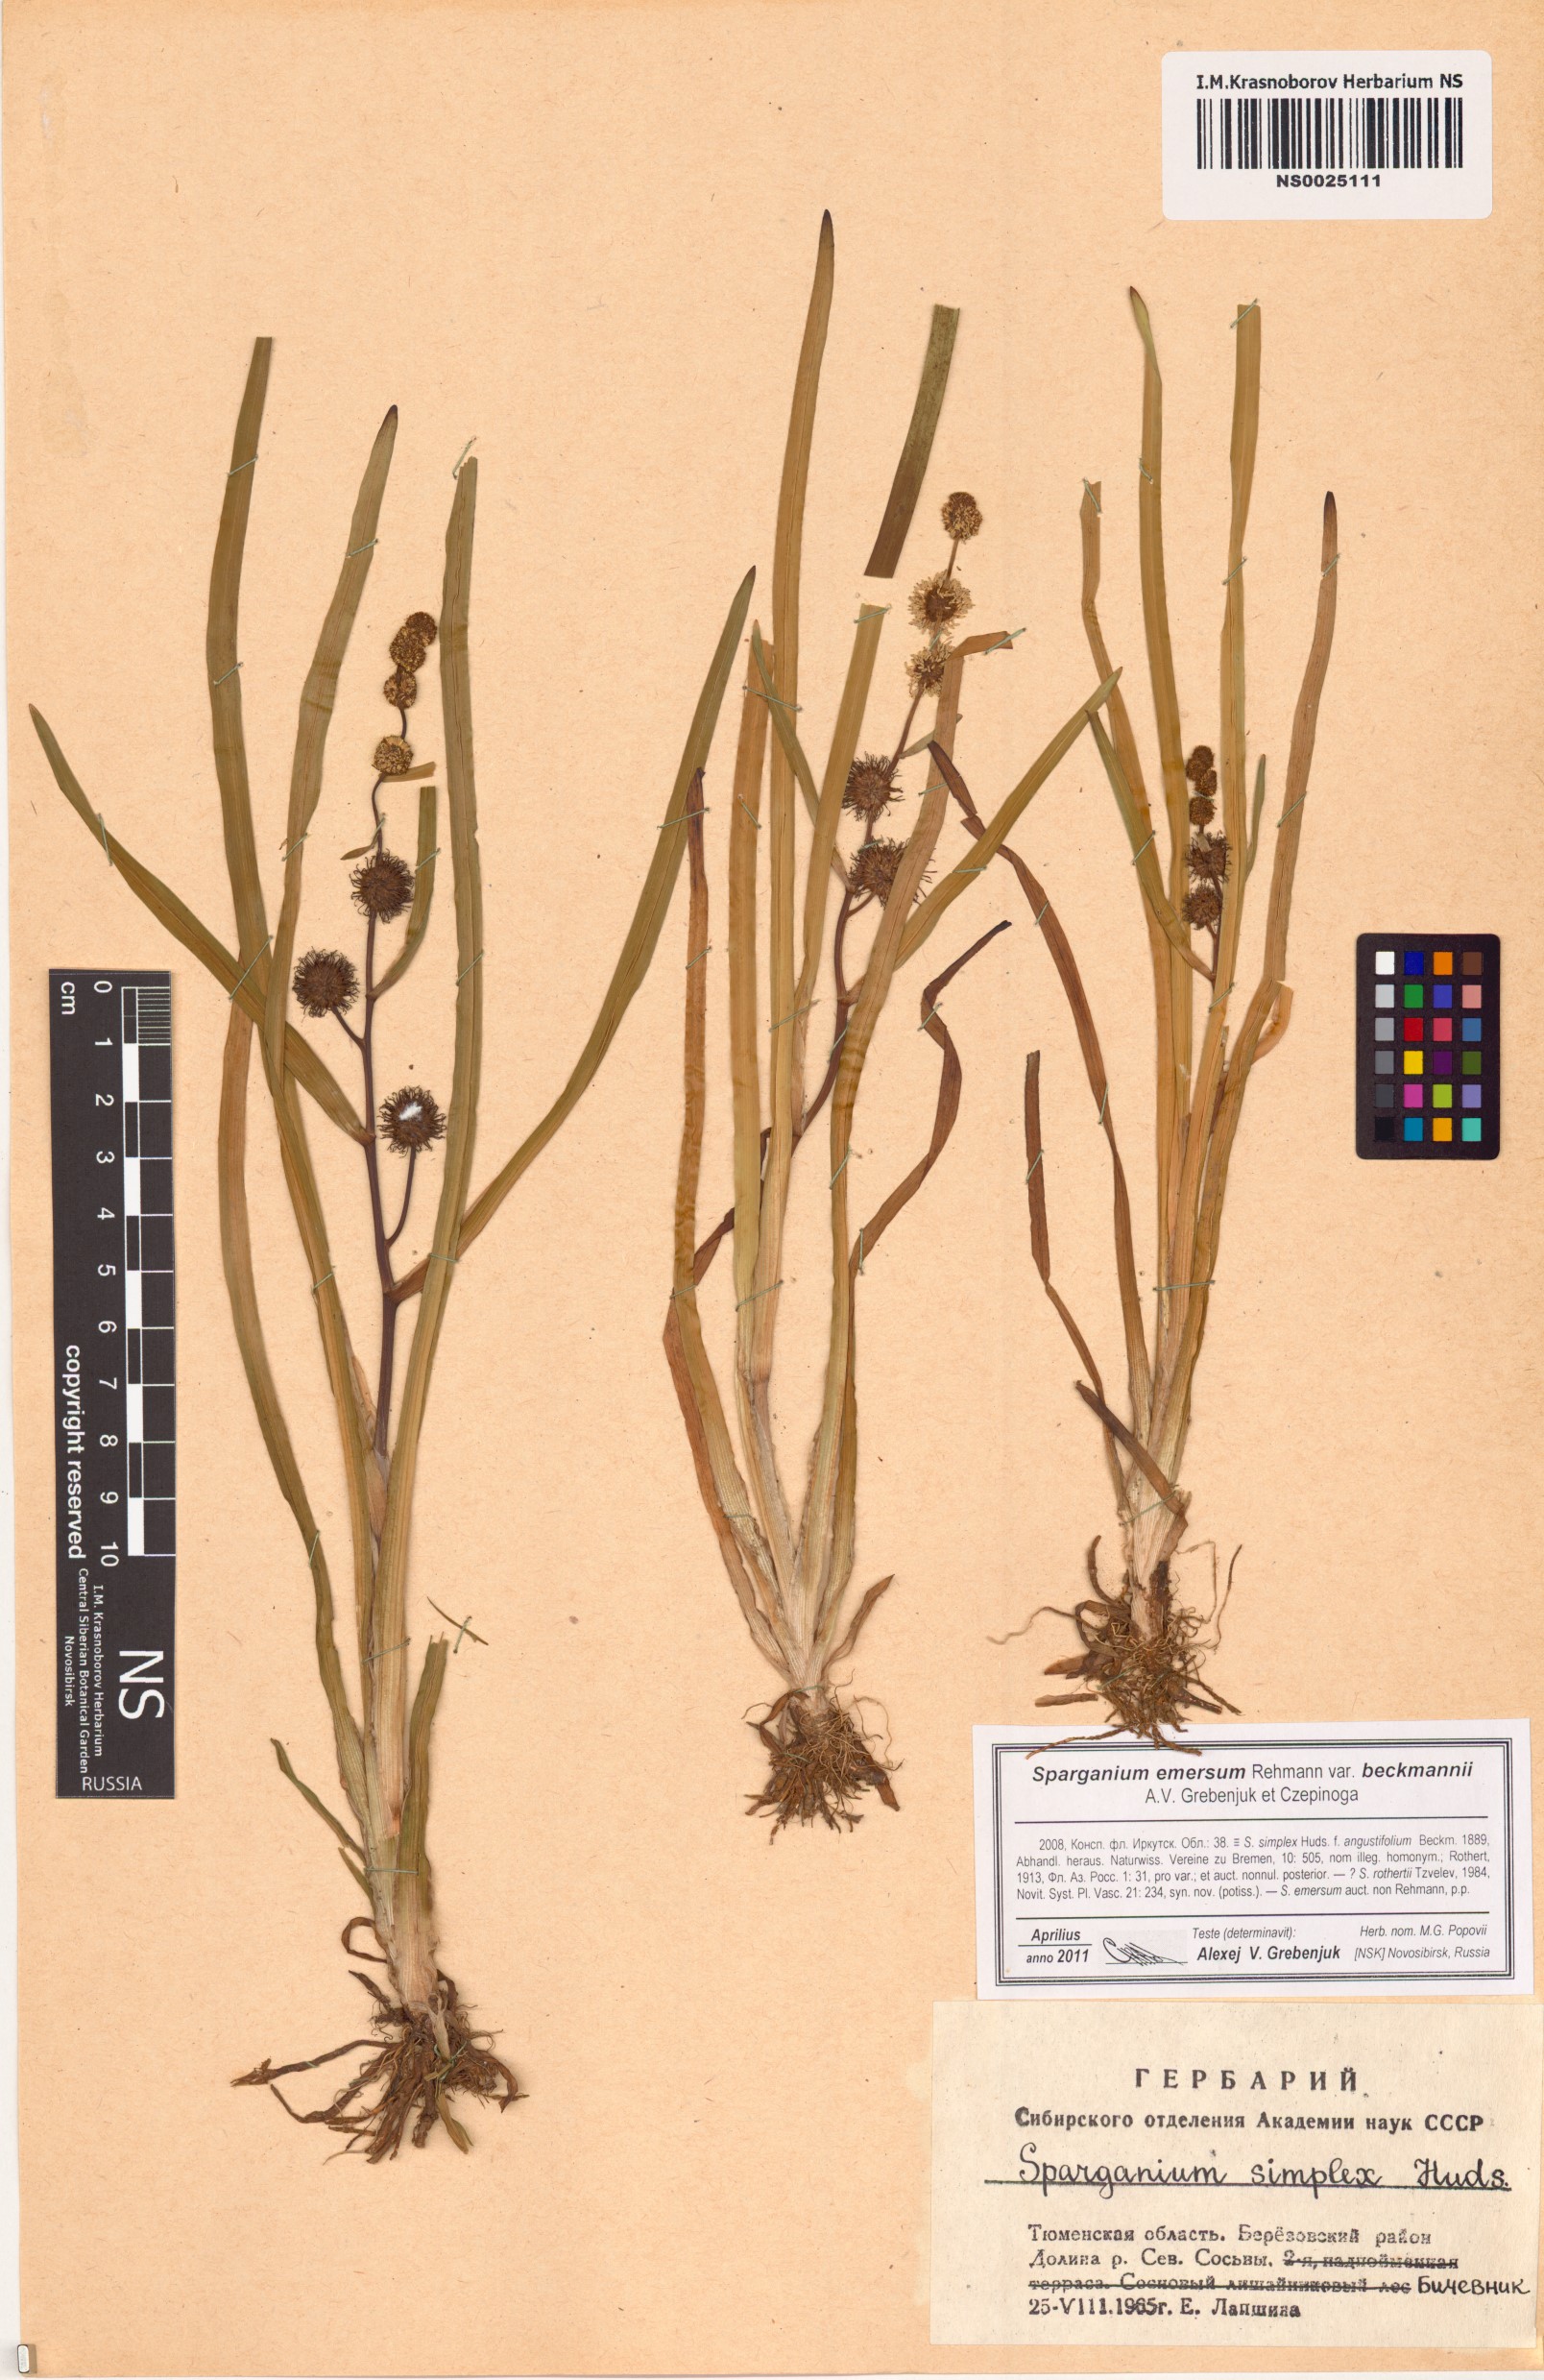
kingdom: Plantae
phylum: Tracheophyta
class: Liliopsida
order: Poales
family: Typhaceae
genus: Sparganium
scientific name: Sparganium emersum
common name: Unbranched bur-reed
